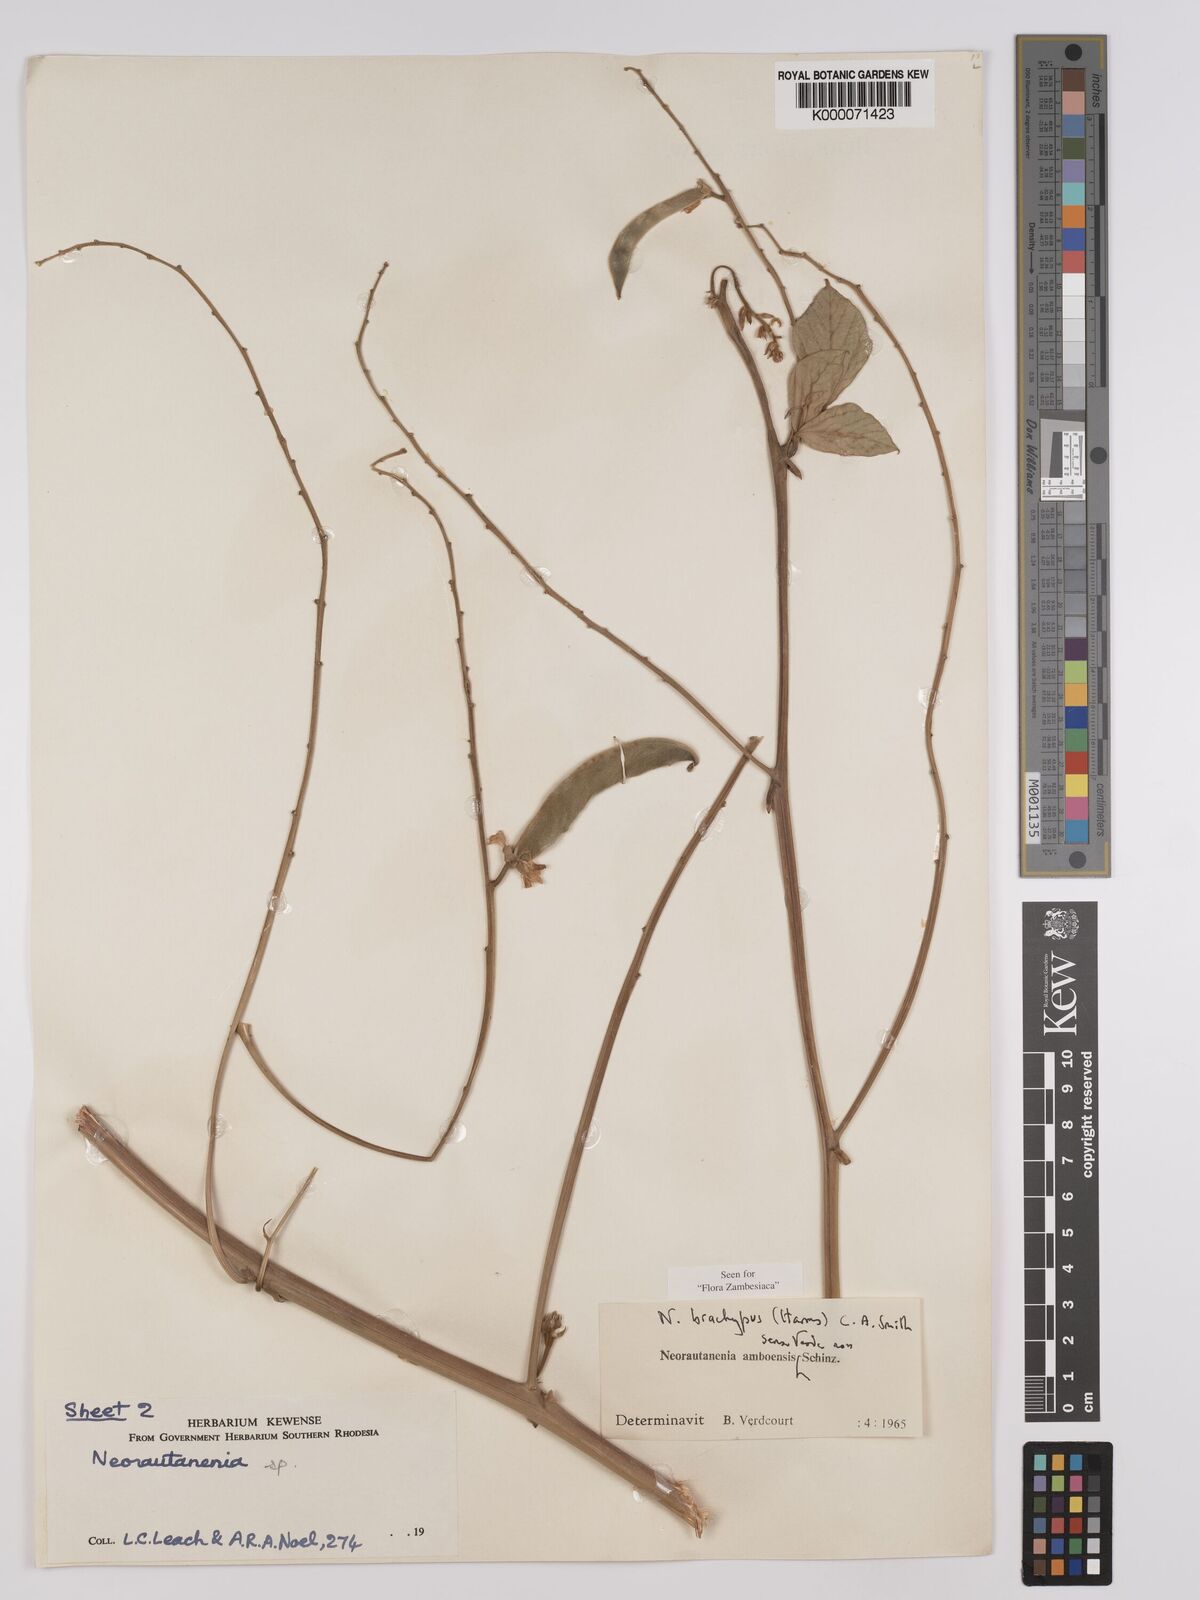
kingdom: Plantae
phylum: Tracheophyta
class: Magnoliopsida
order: Fabales
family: Fabaceae
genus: Neorautanenia
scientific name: Neorautanenia
